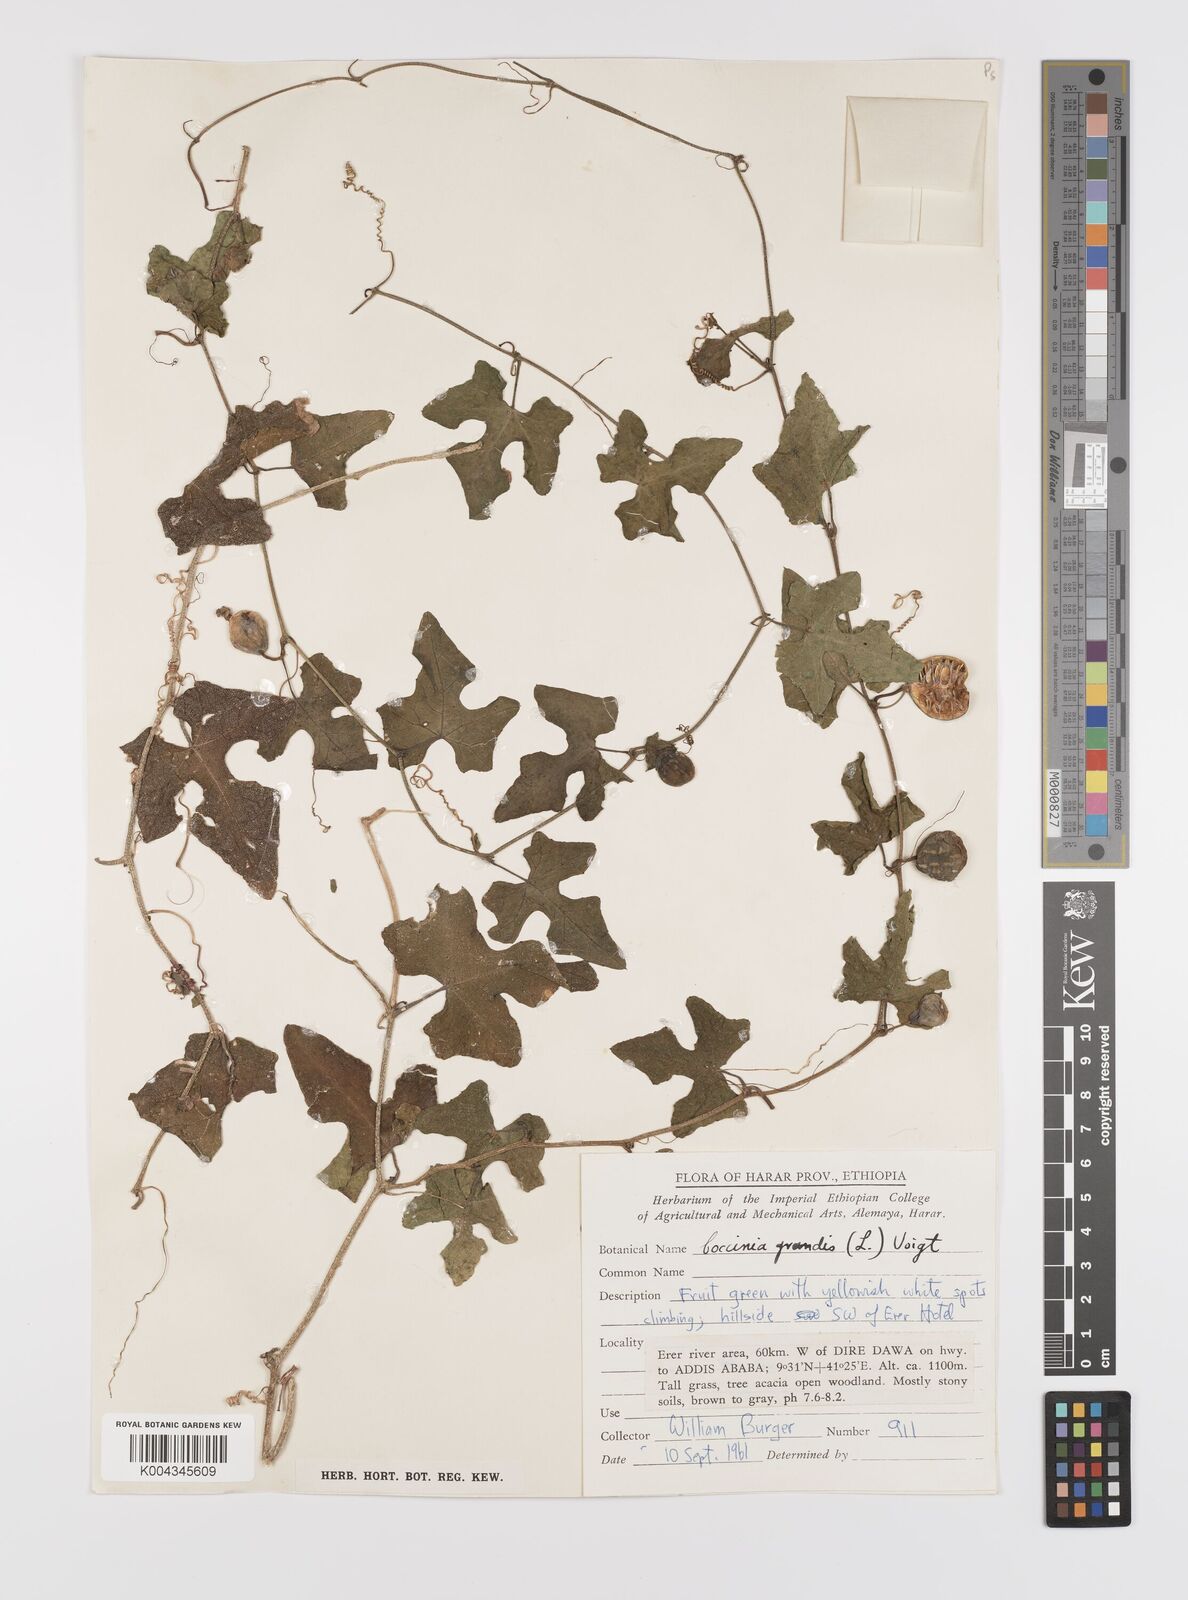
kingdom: Plantae
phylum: Tracheophyta
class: Magnoliopsida
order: Cucurbitales
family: Cucurbitaceae
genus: Coccinia
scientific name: Coccinia grandis
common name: Ivy gourd
